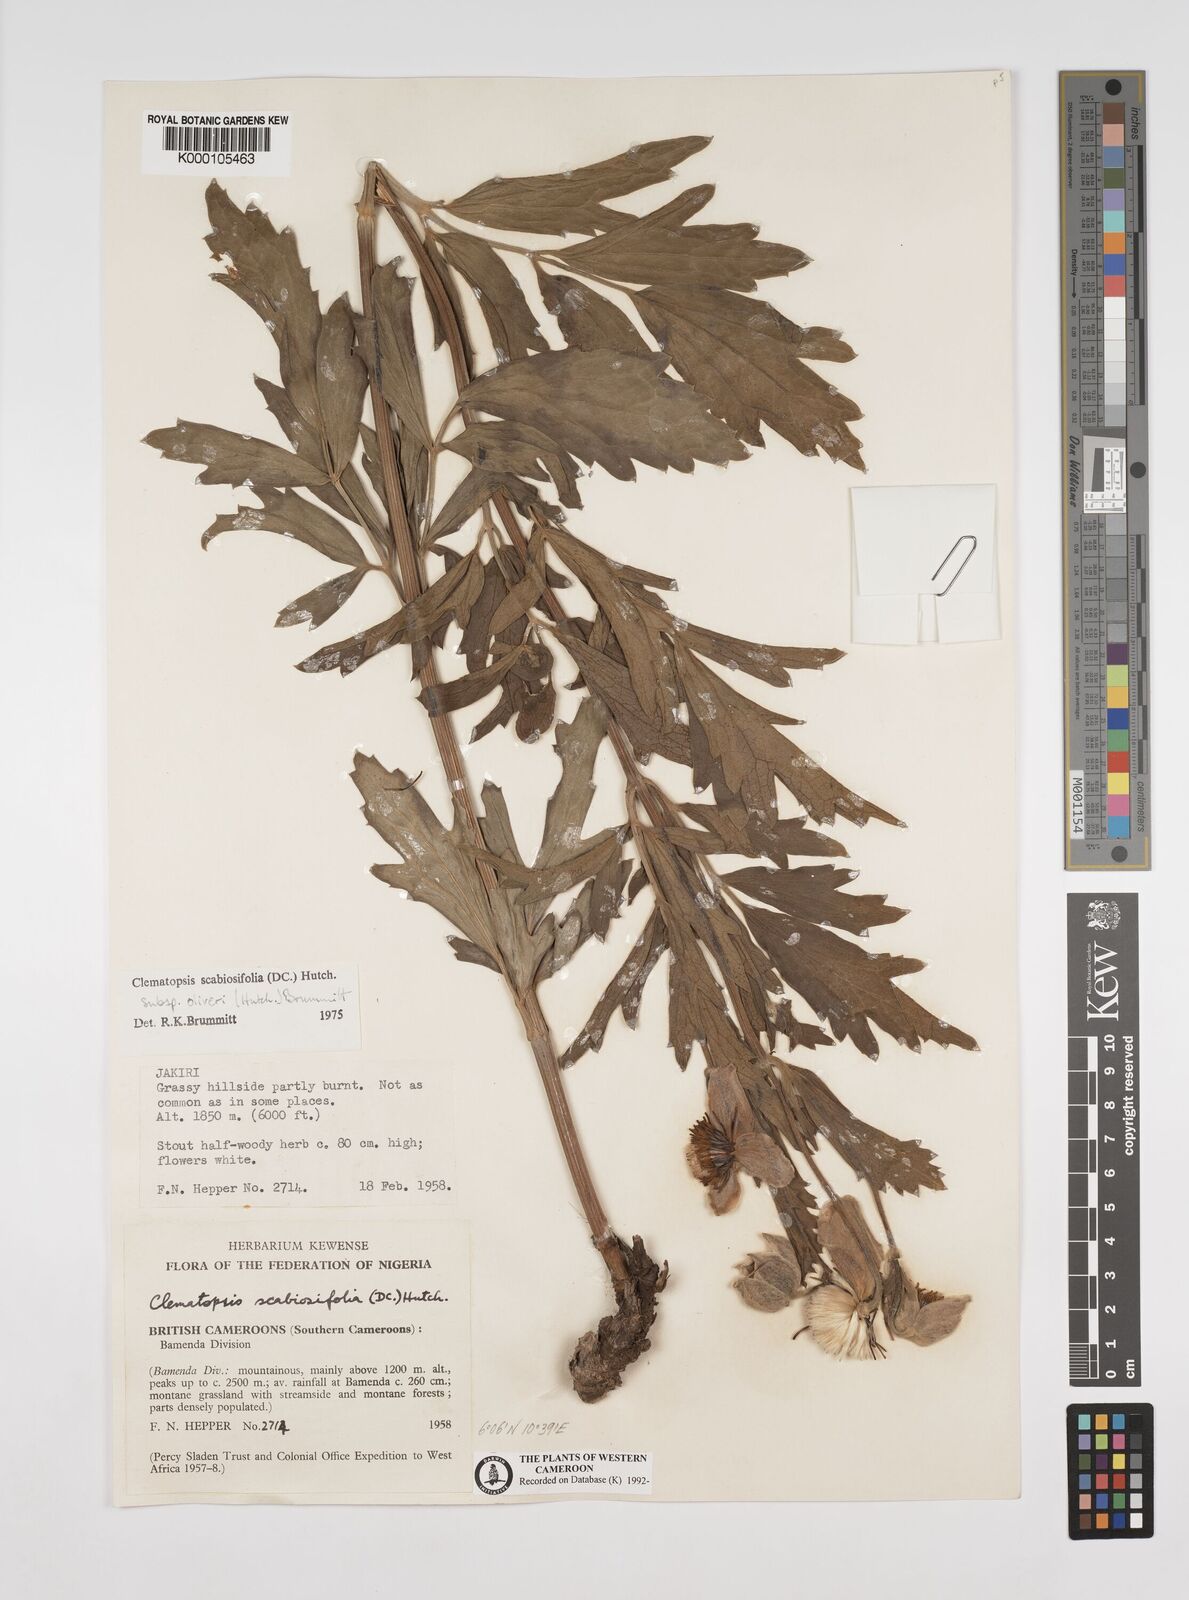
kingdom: Plantae
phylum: Tracheophyta
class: Magnoliopsida
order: Ranunculales
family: Ranunculaceae
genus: Clematis
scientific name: Clematis villosa
